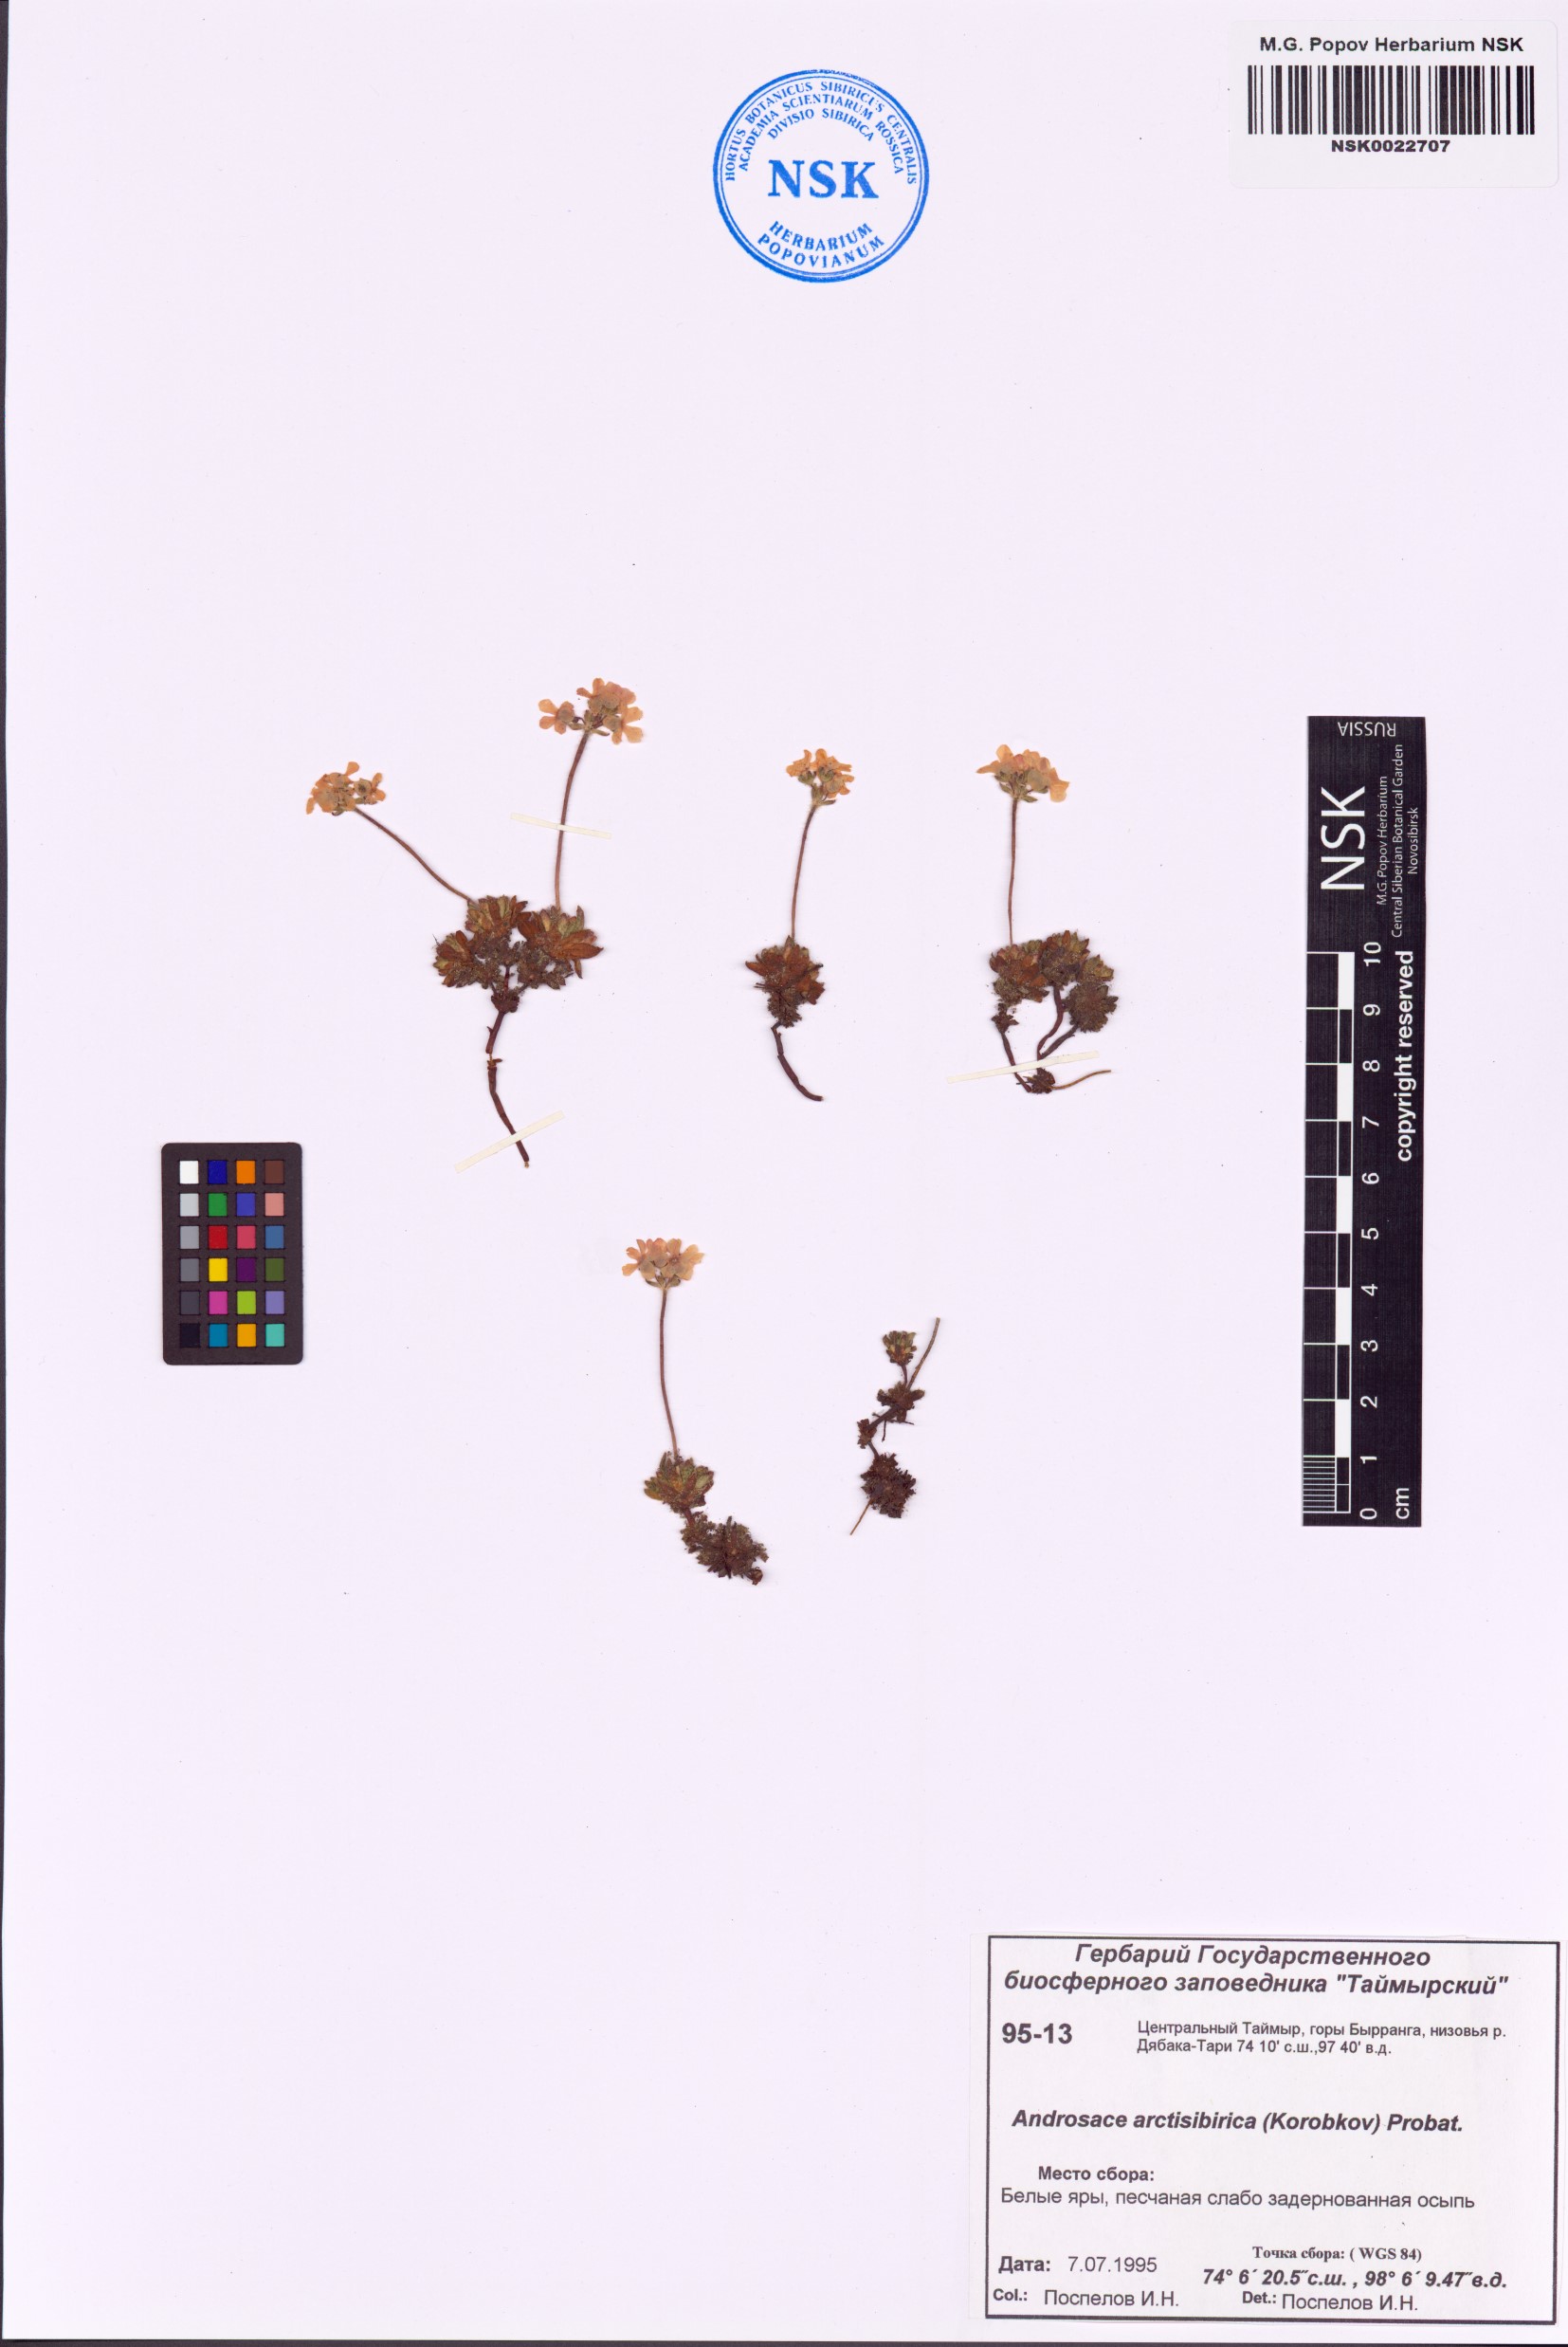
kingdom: Plantae
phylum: Tracheophyta
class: Magnoliopsida
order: Ericales
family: Primulaceae
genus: Androsace
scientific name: Androsace bungeana
